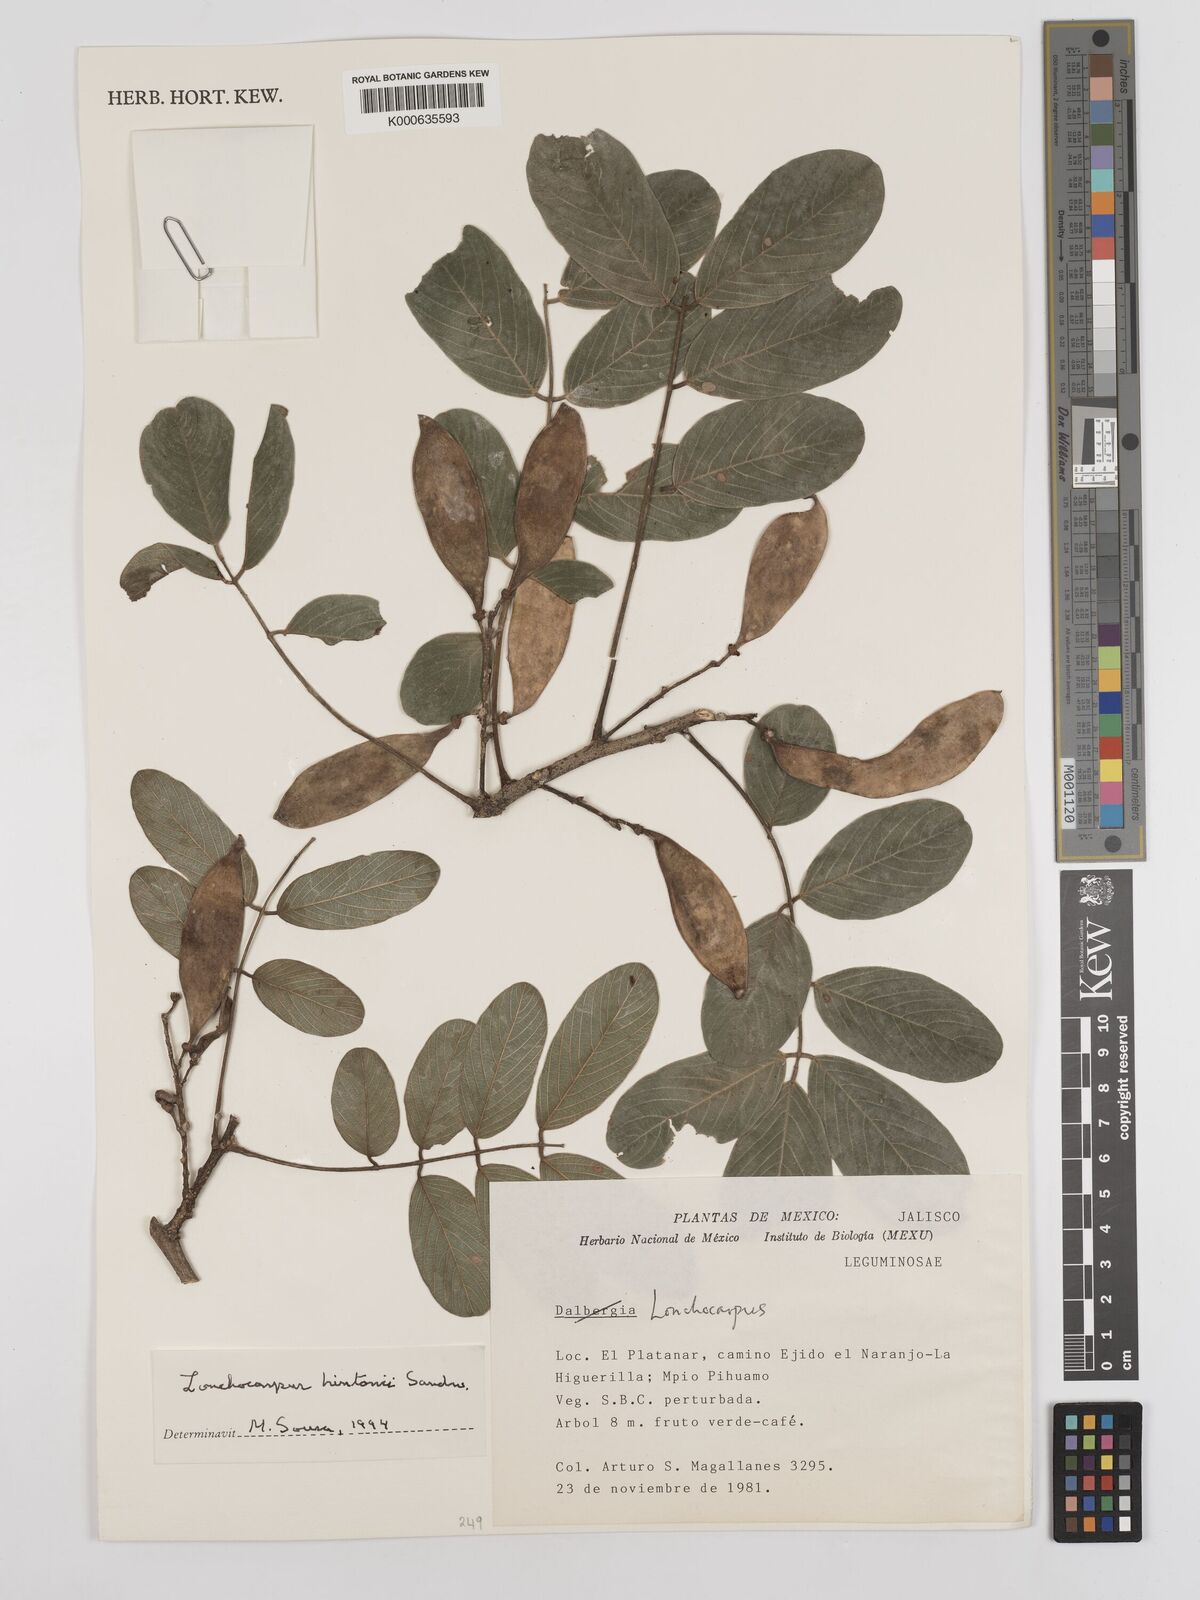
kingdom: Plantae
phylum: Tracheophyta
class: Magnoliopsida
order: Fabales
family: Fabaceae
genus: Lonchocarpus
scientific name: Lonchocarpus hintonii
